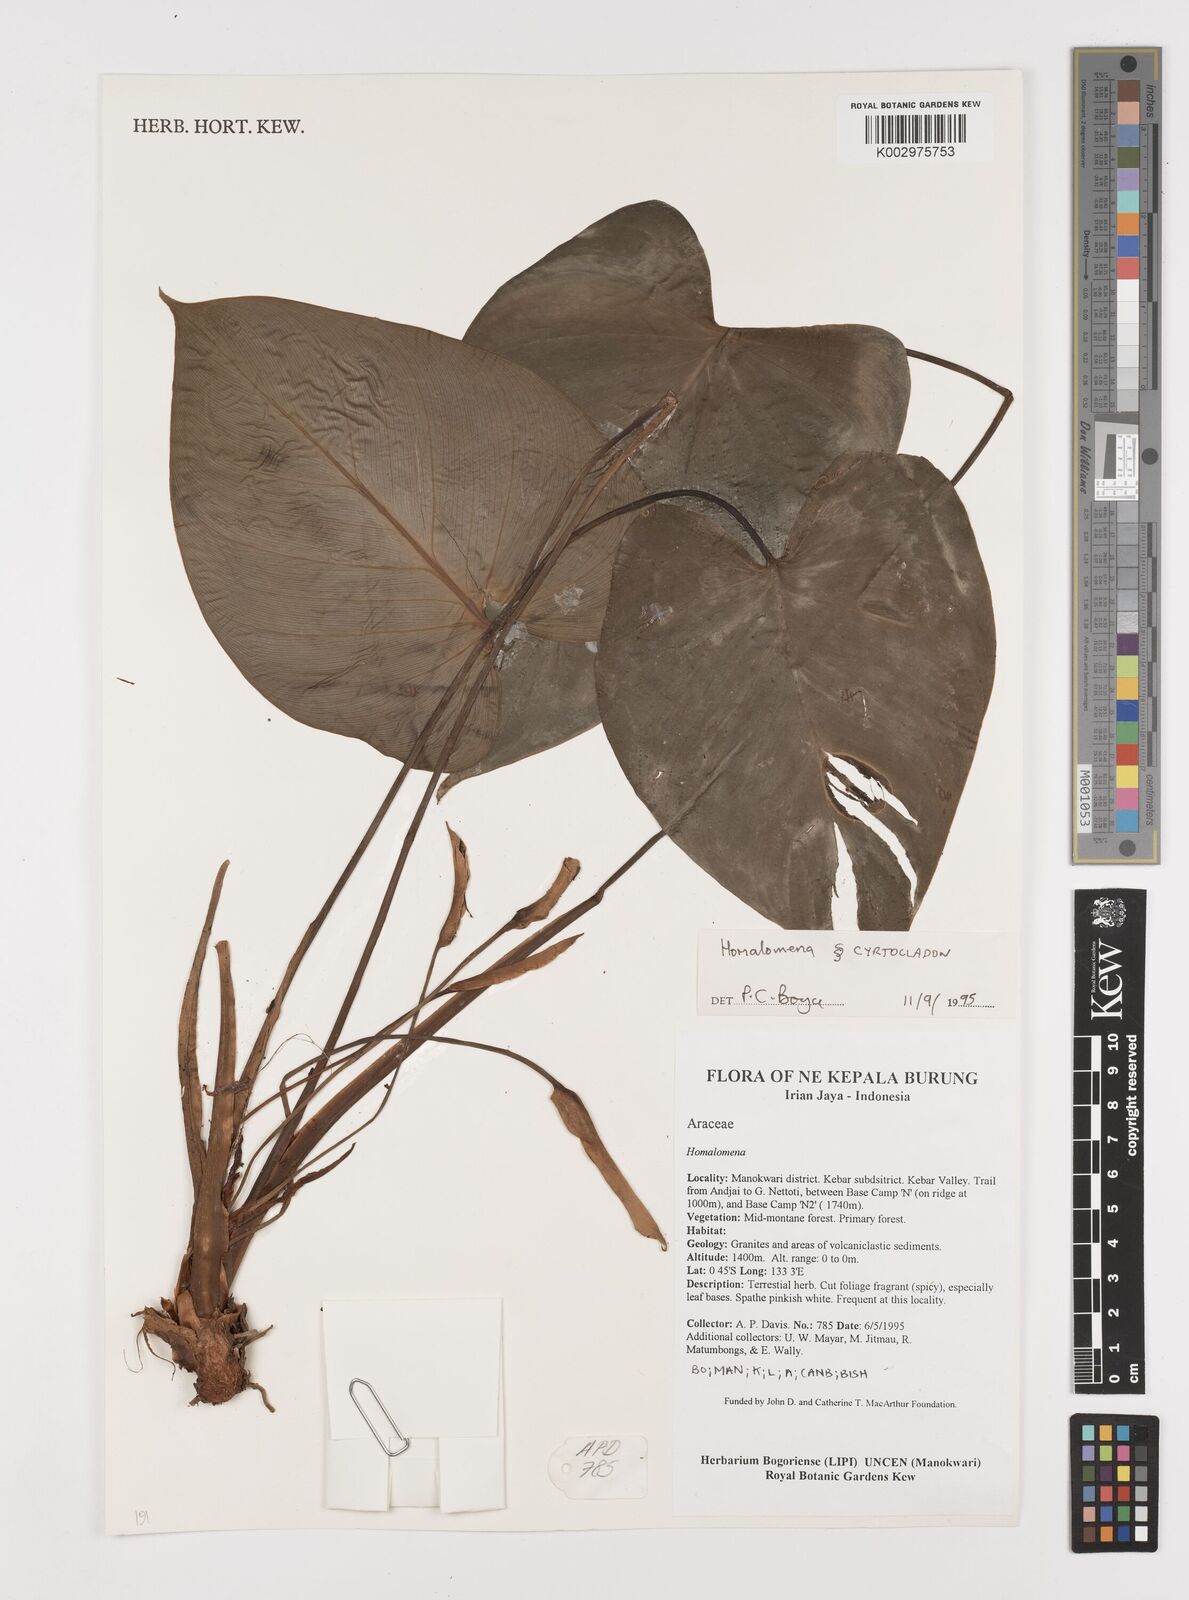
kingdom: Plantae
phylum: Tracheophyta
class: Liliopsida
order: Alismatales
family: Araceae
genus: Homalomena
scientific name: Homalomena
